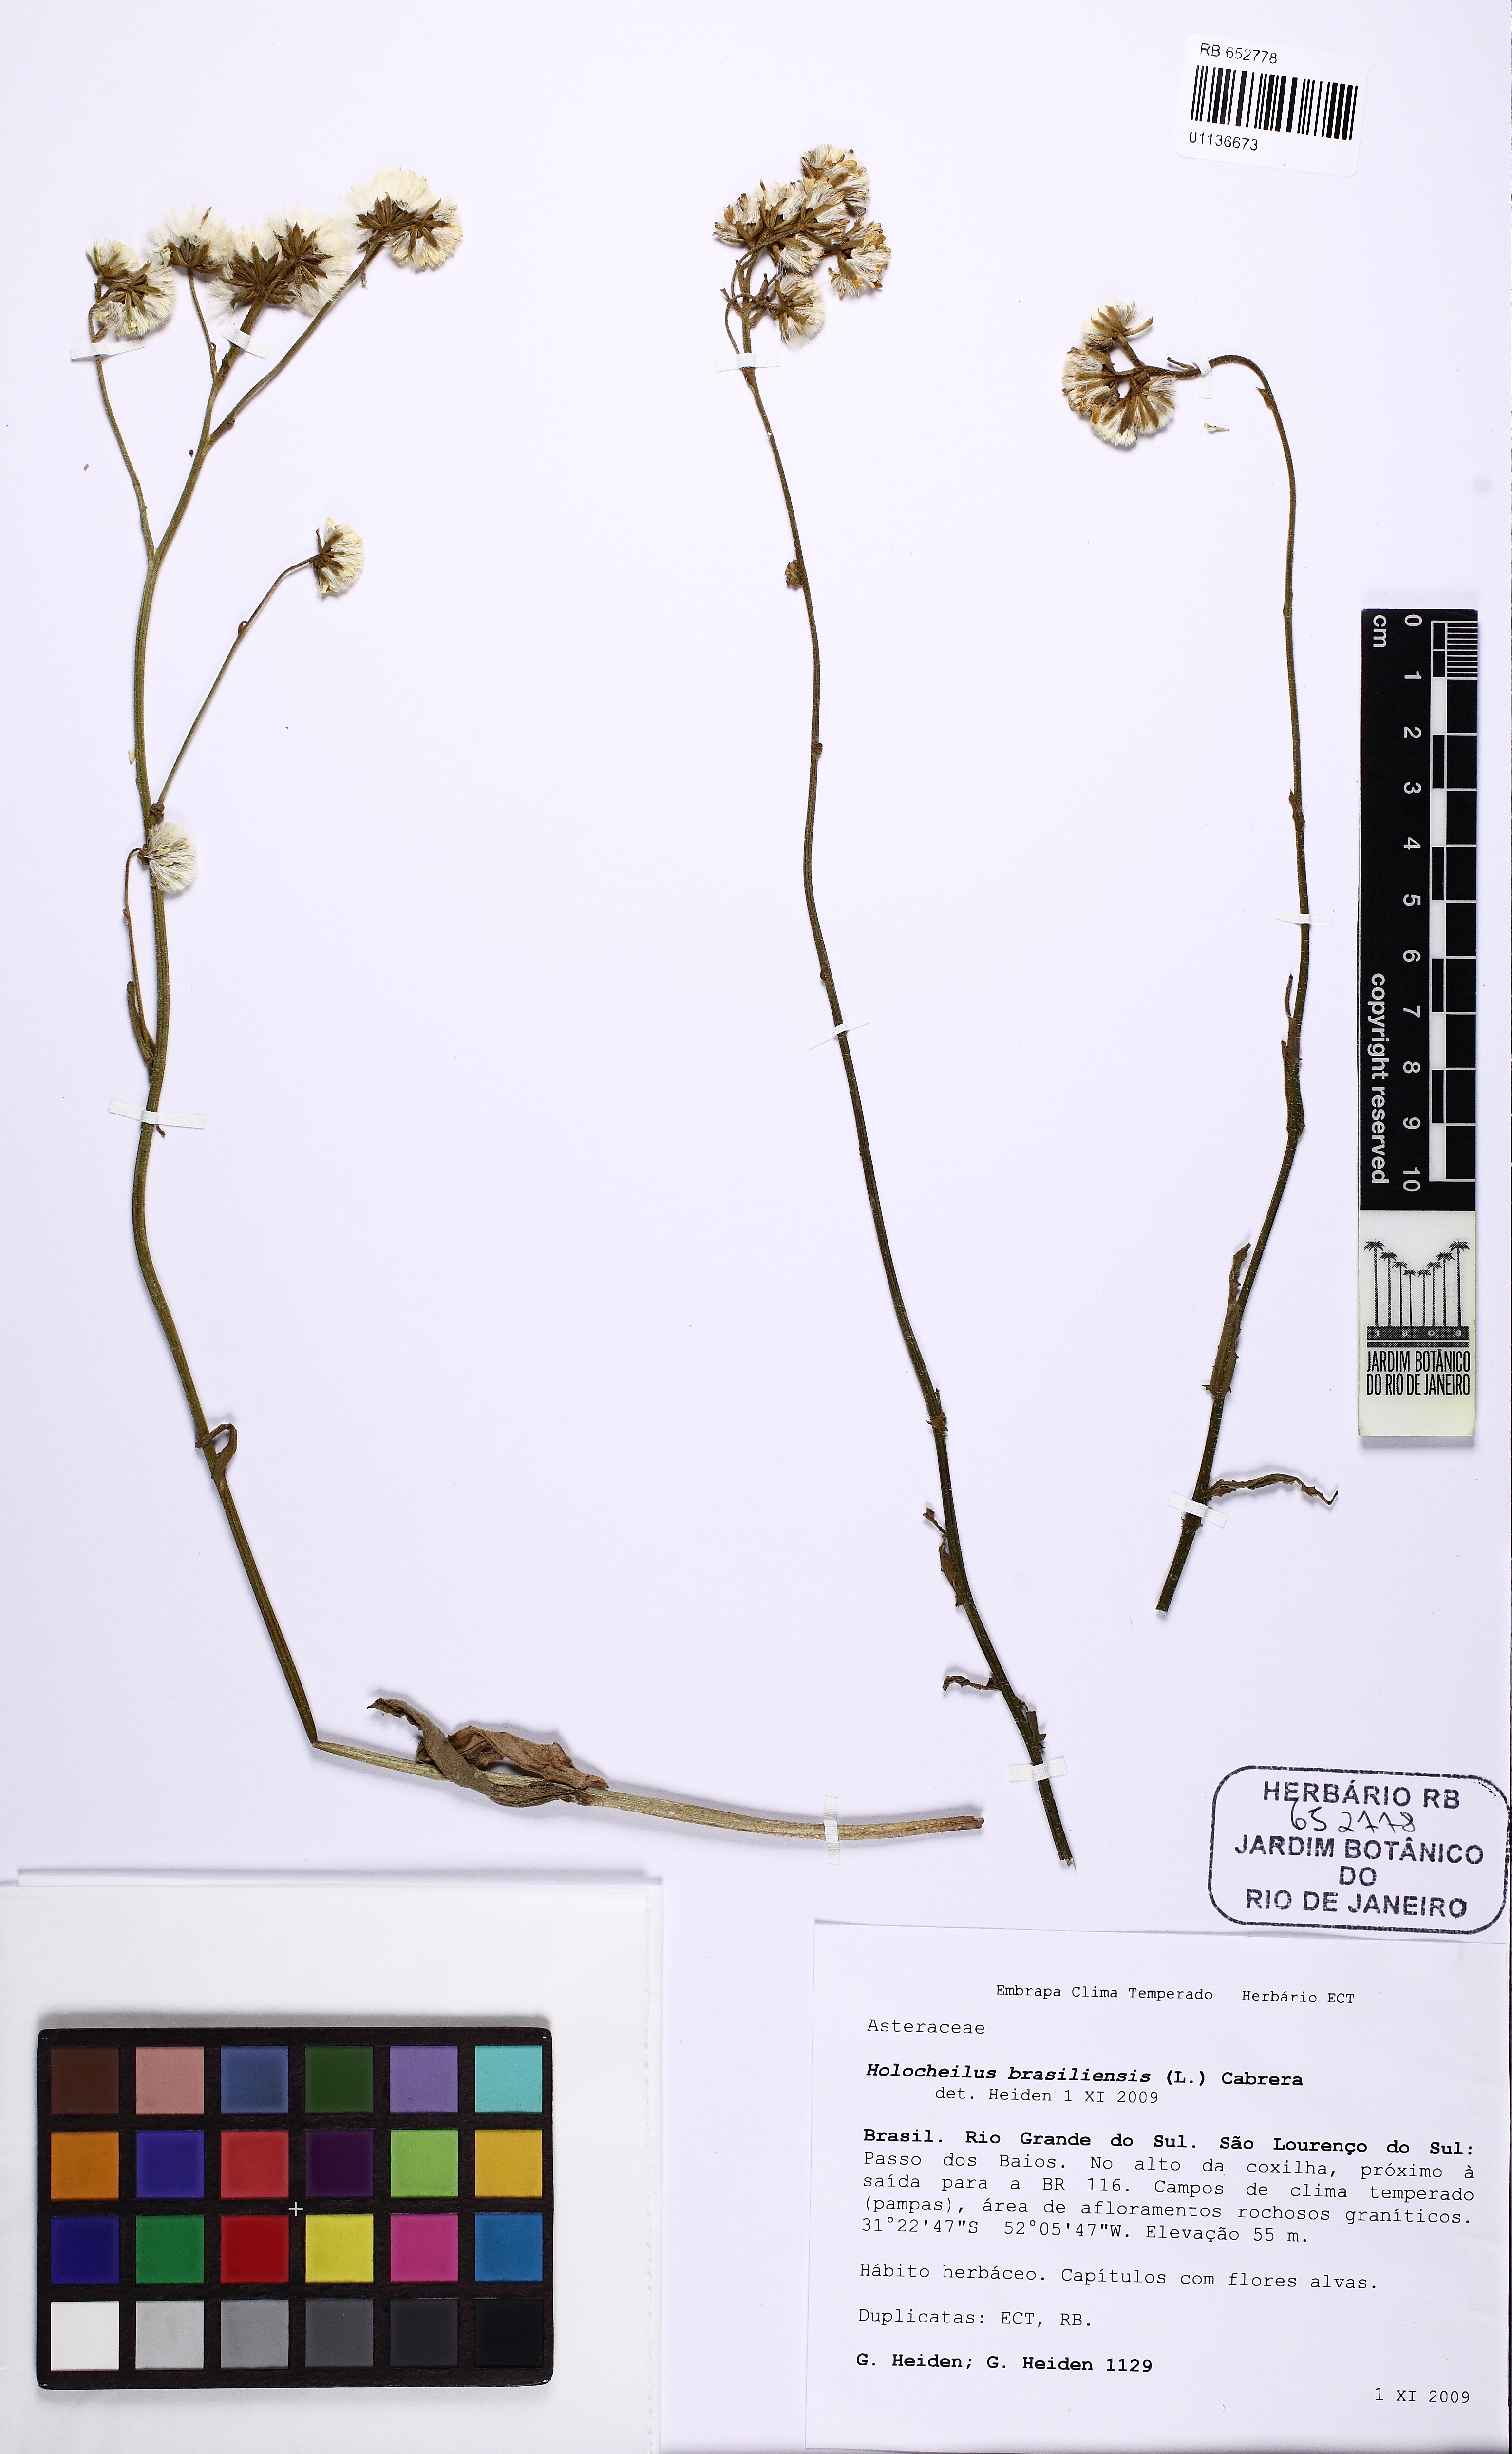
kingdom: Plantae
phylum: Tracheophyta
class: Magnoliopsida
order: Asterales
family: Asteraceae
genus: Holocheilus
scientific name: Holocheilus brasiliensis
